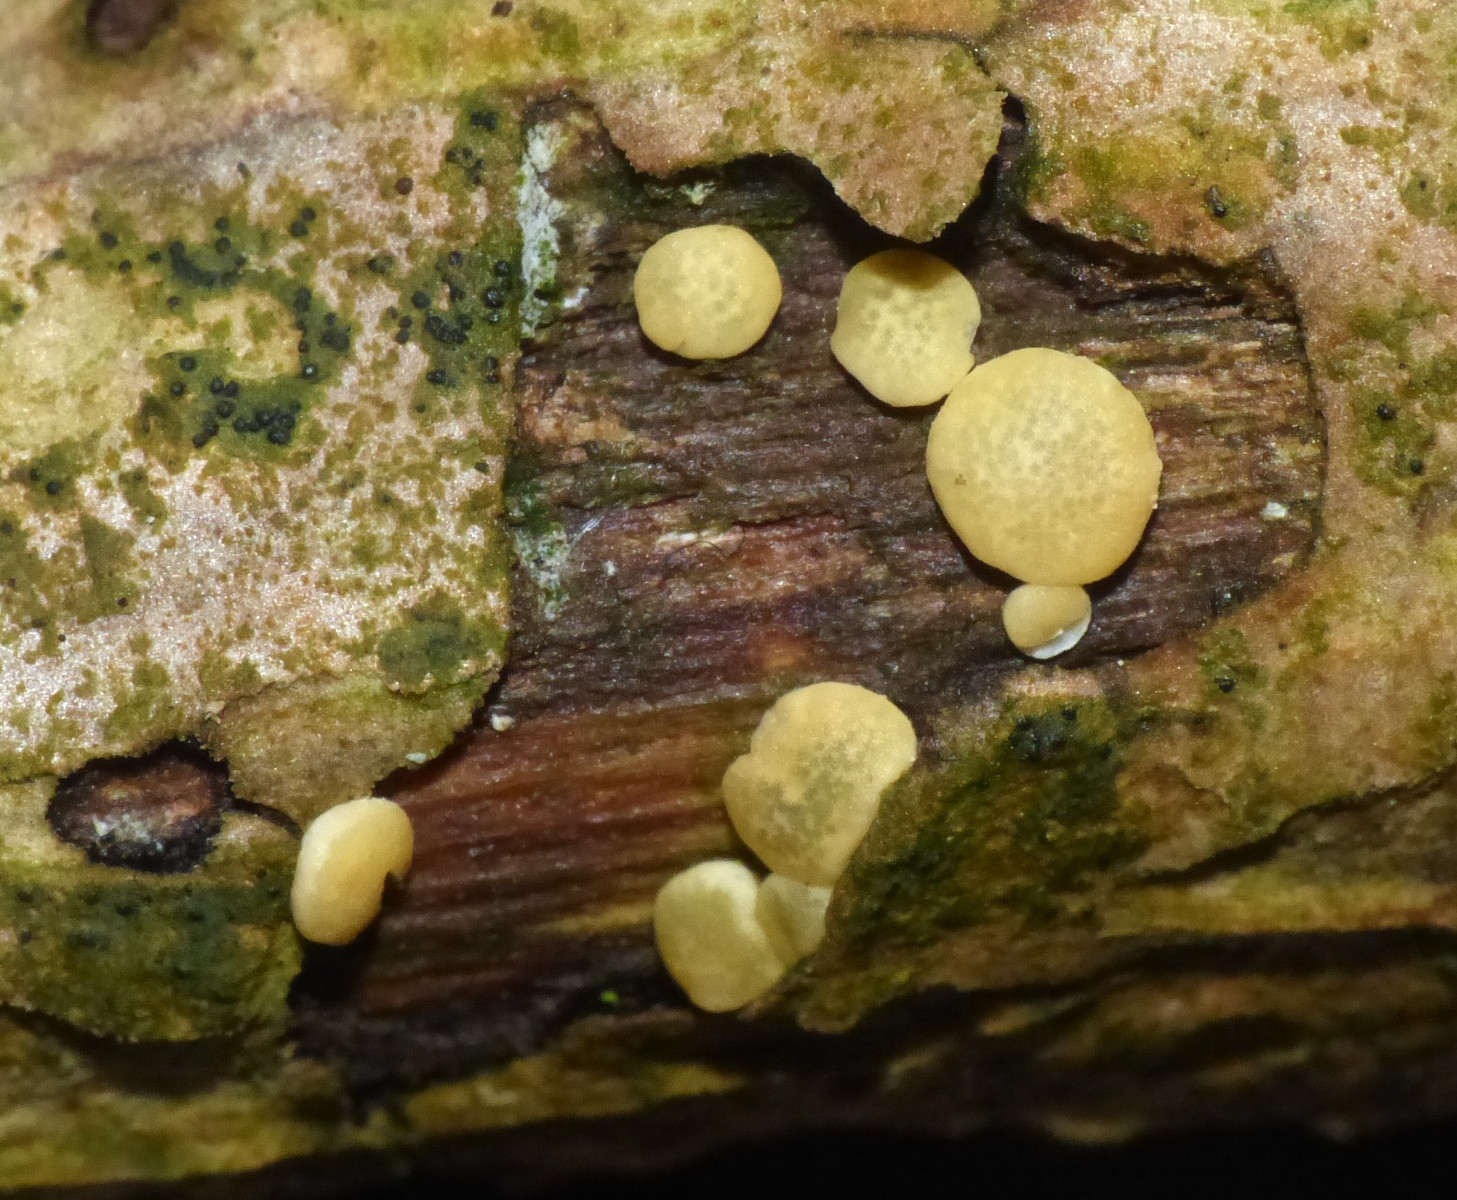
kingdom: Fungi
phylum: Ascomycota
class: Sordariomycetes
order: Hypocreales
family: Hypocreaceae
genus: Trichoderma
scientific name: Trichoderma aureoviride
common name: æggegul kødkerne
